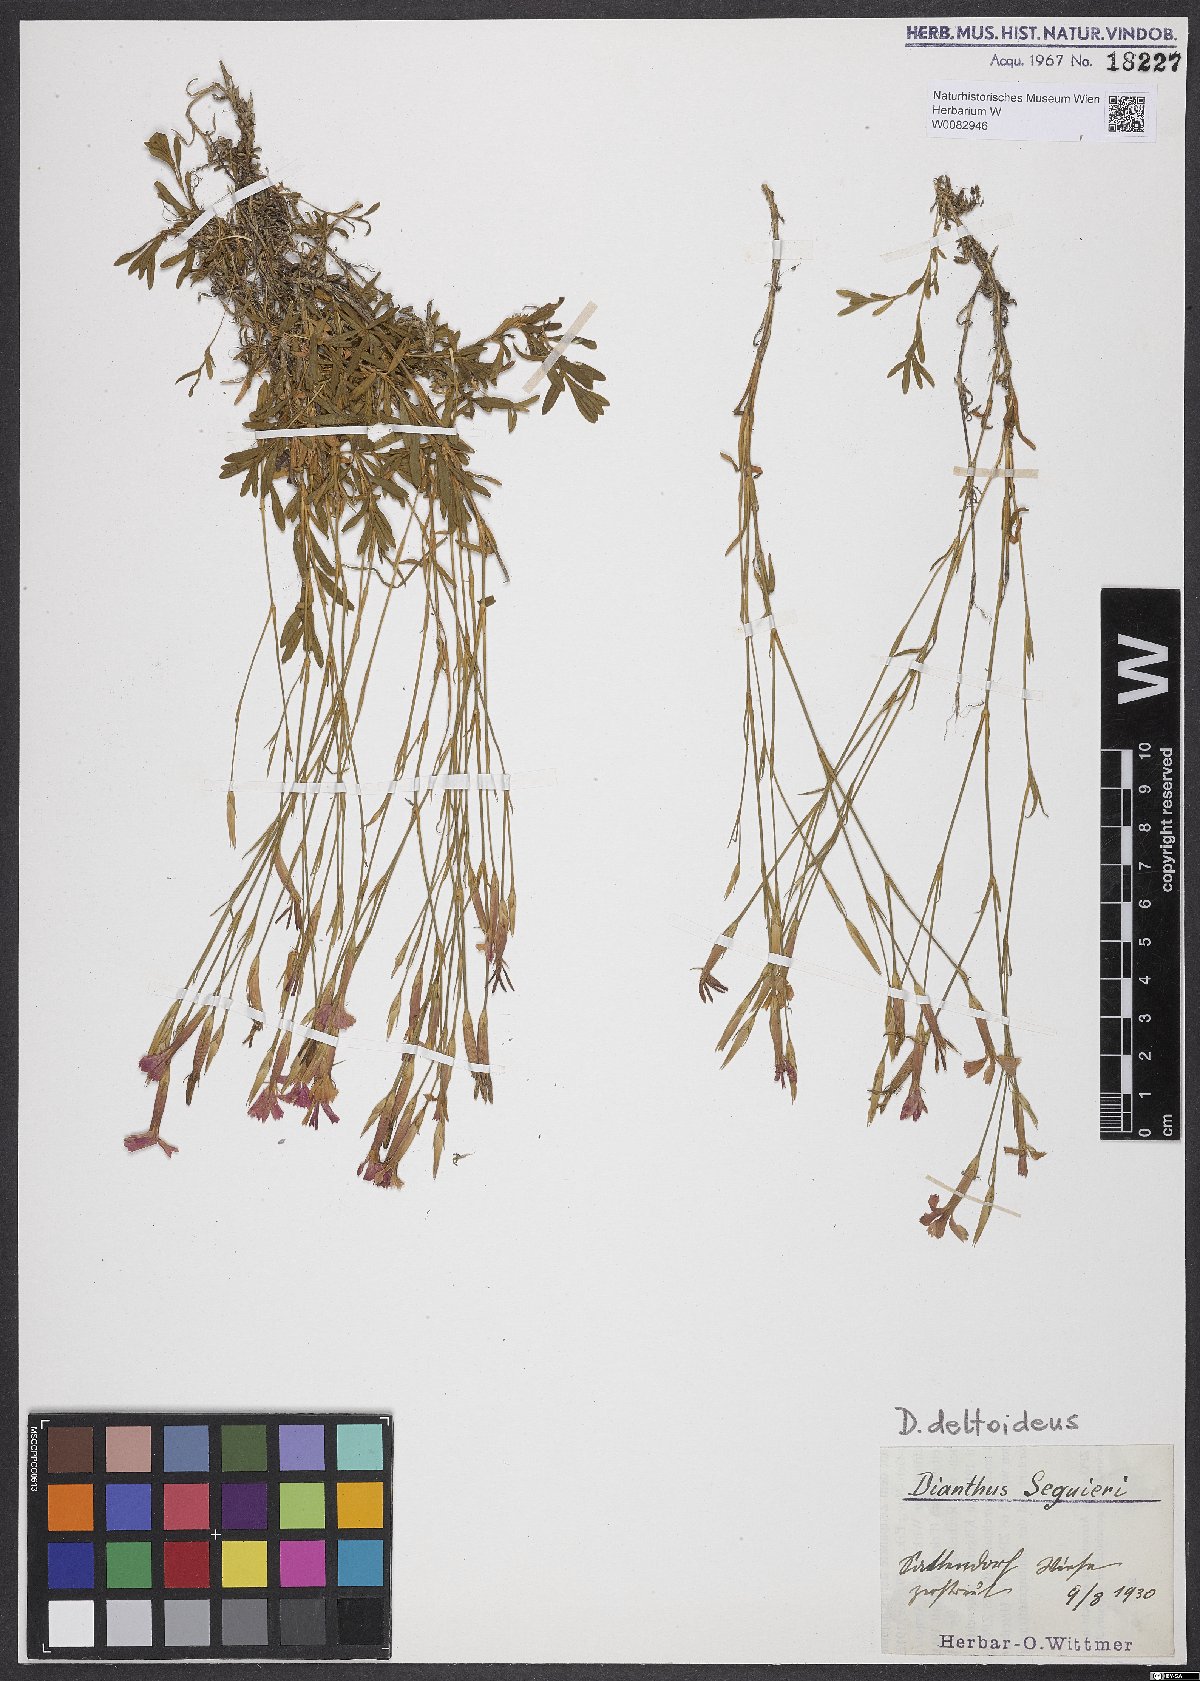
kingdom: Plantae
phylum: Tracheophyta
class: Magnoliopsida
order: Caryophyllales
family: Caryophyllaceae
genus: Dianthus
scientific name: Dianthus deltoides
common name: Maiden pink
